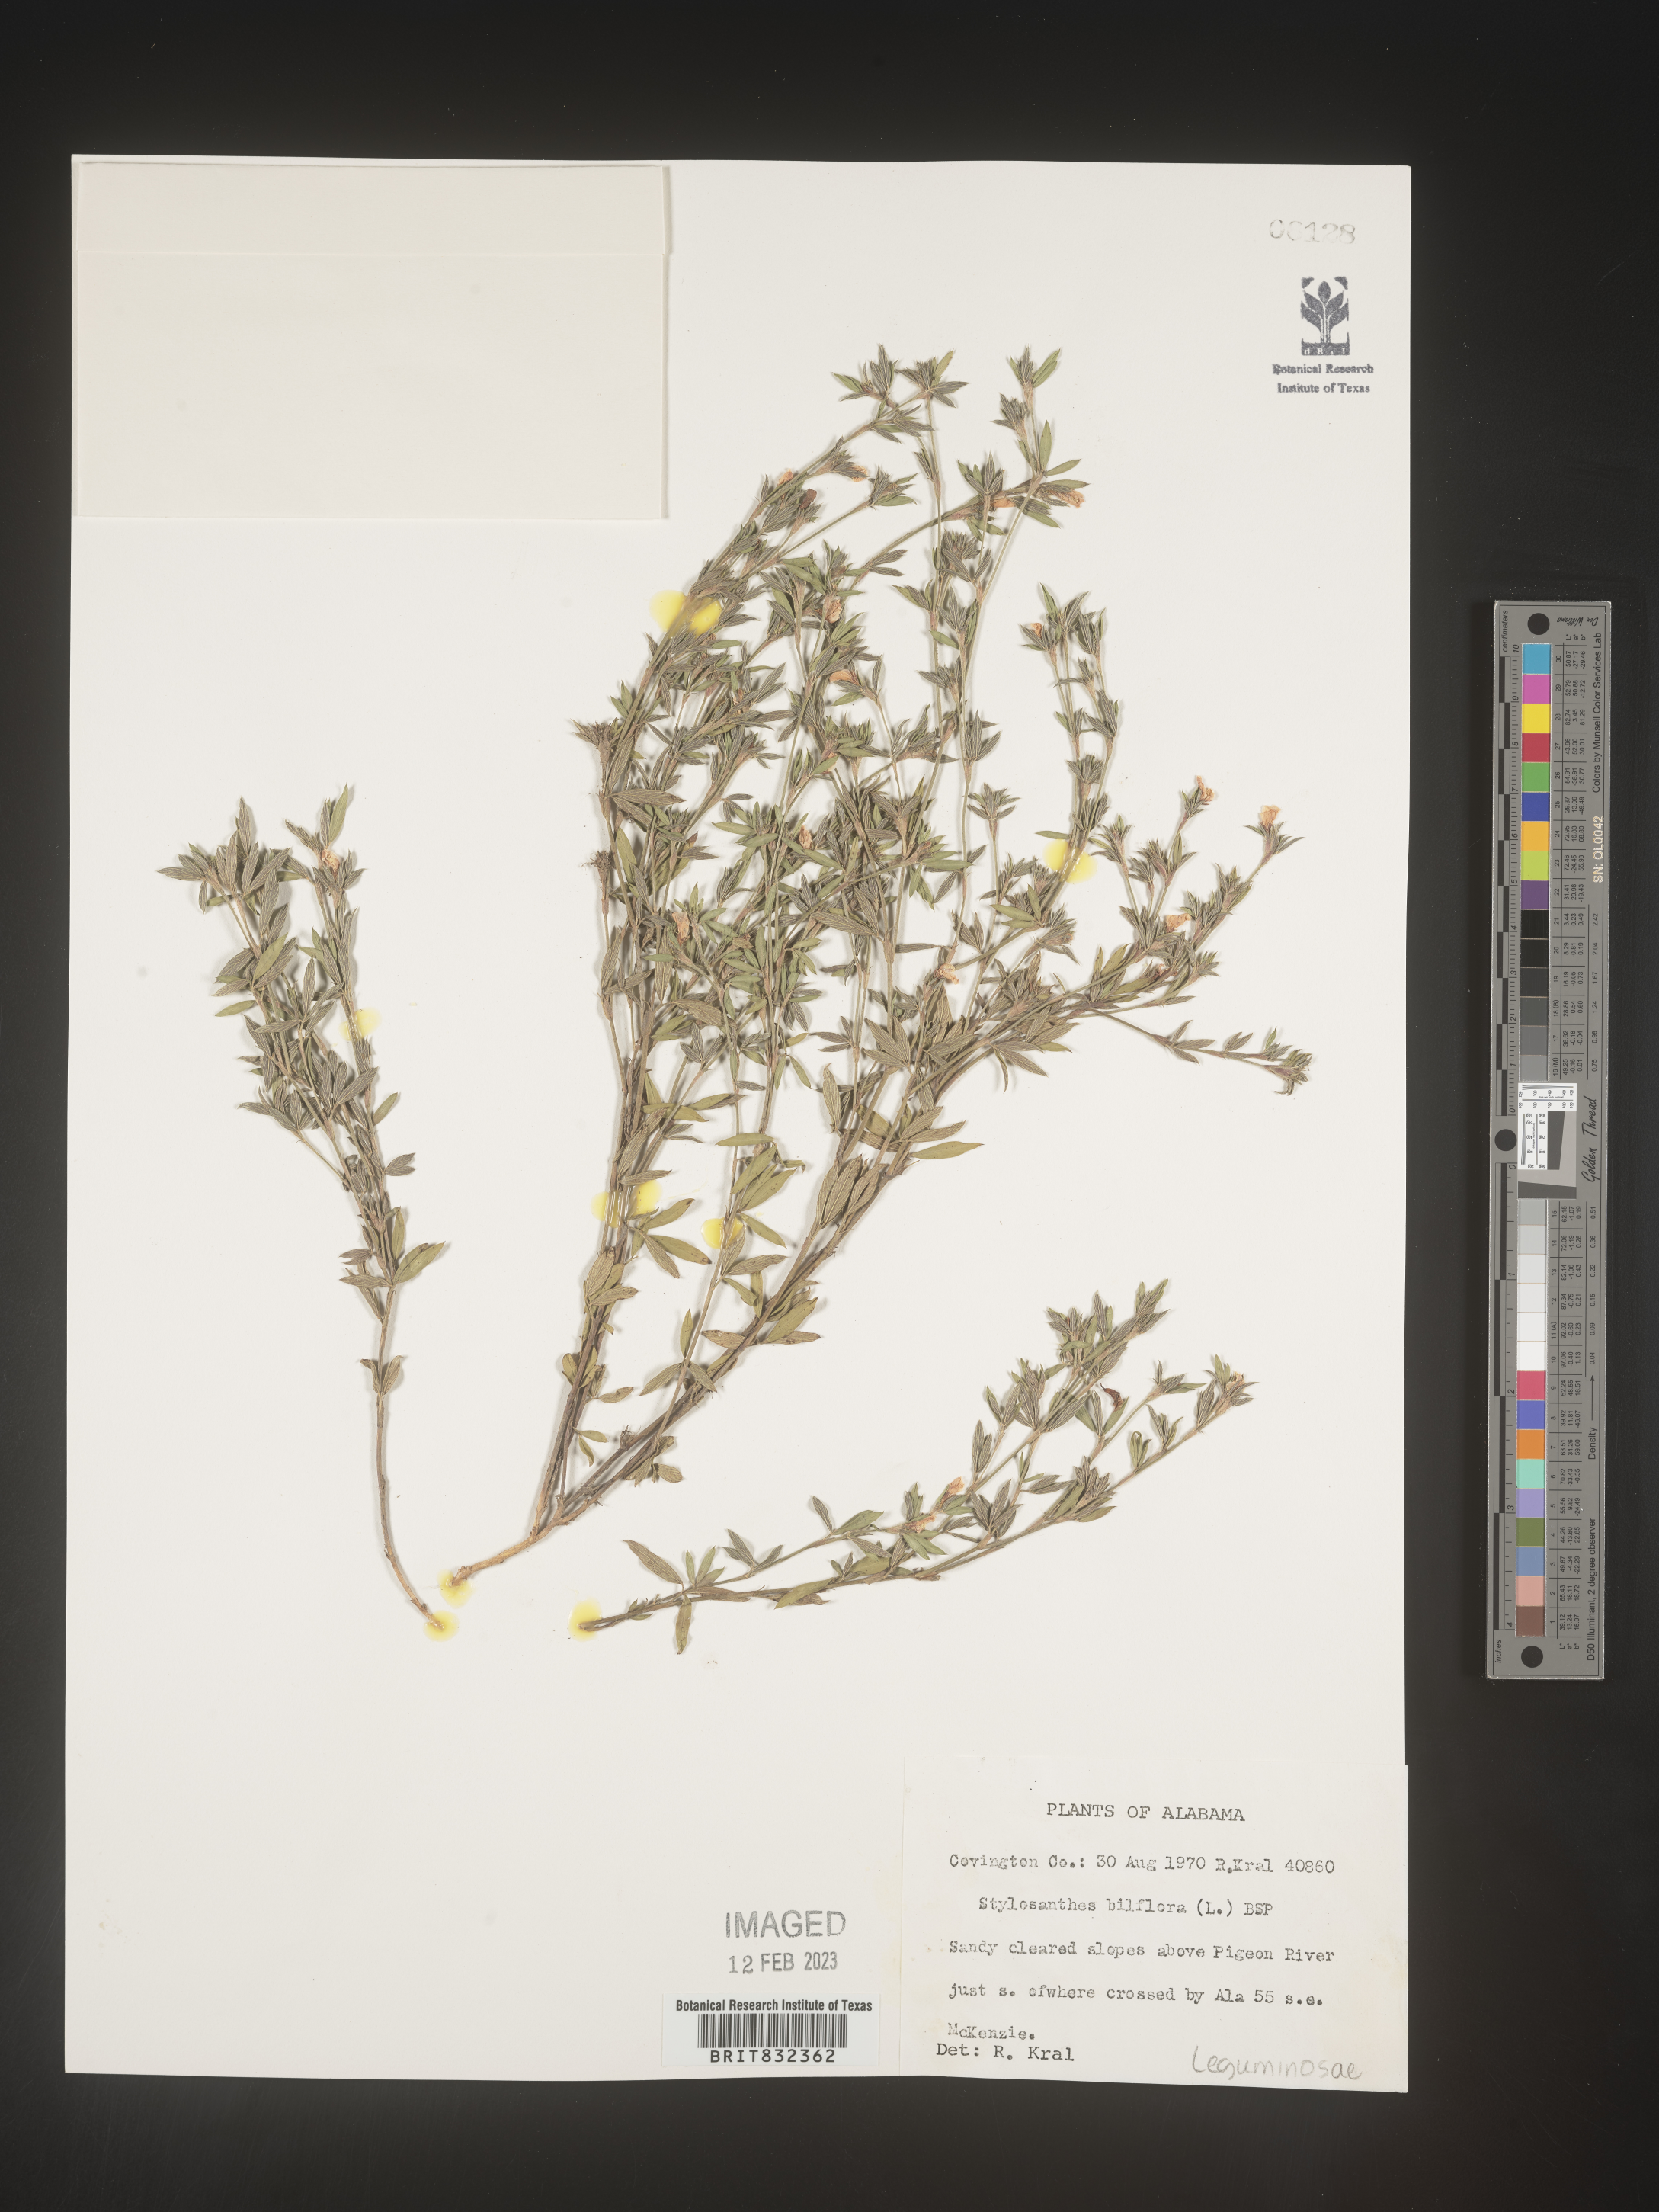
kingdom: Plantae
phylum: Tracheophyta
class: Magnoliopsida
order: Fabales
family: Fabaceae
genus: Stylosanthes
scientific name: Stylosanthes biflora
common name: Two-flower pencil-flower
